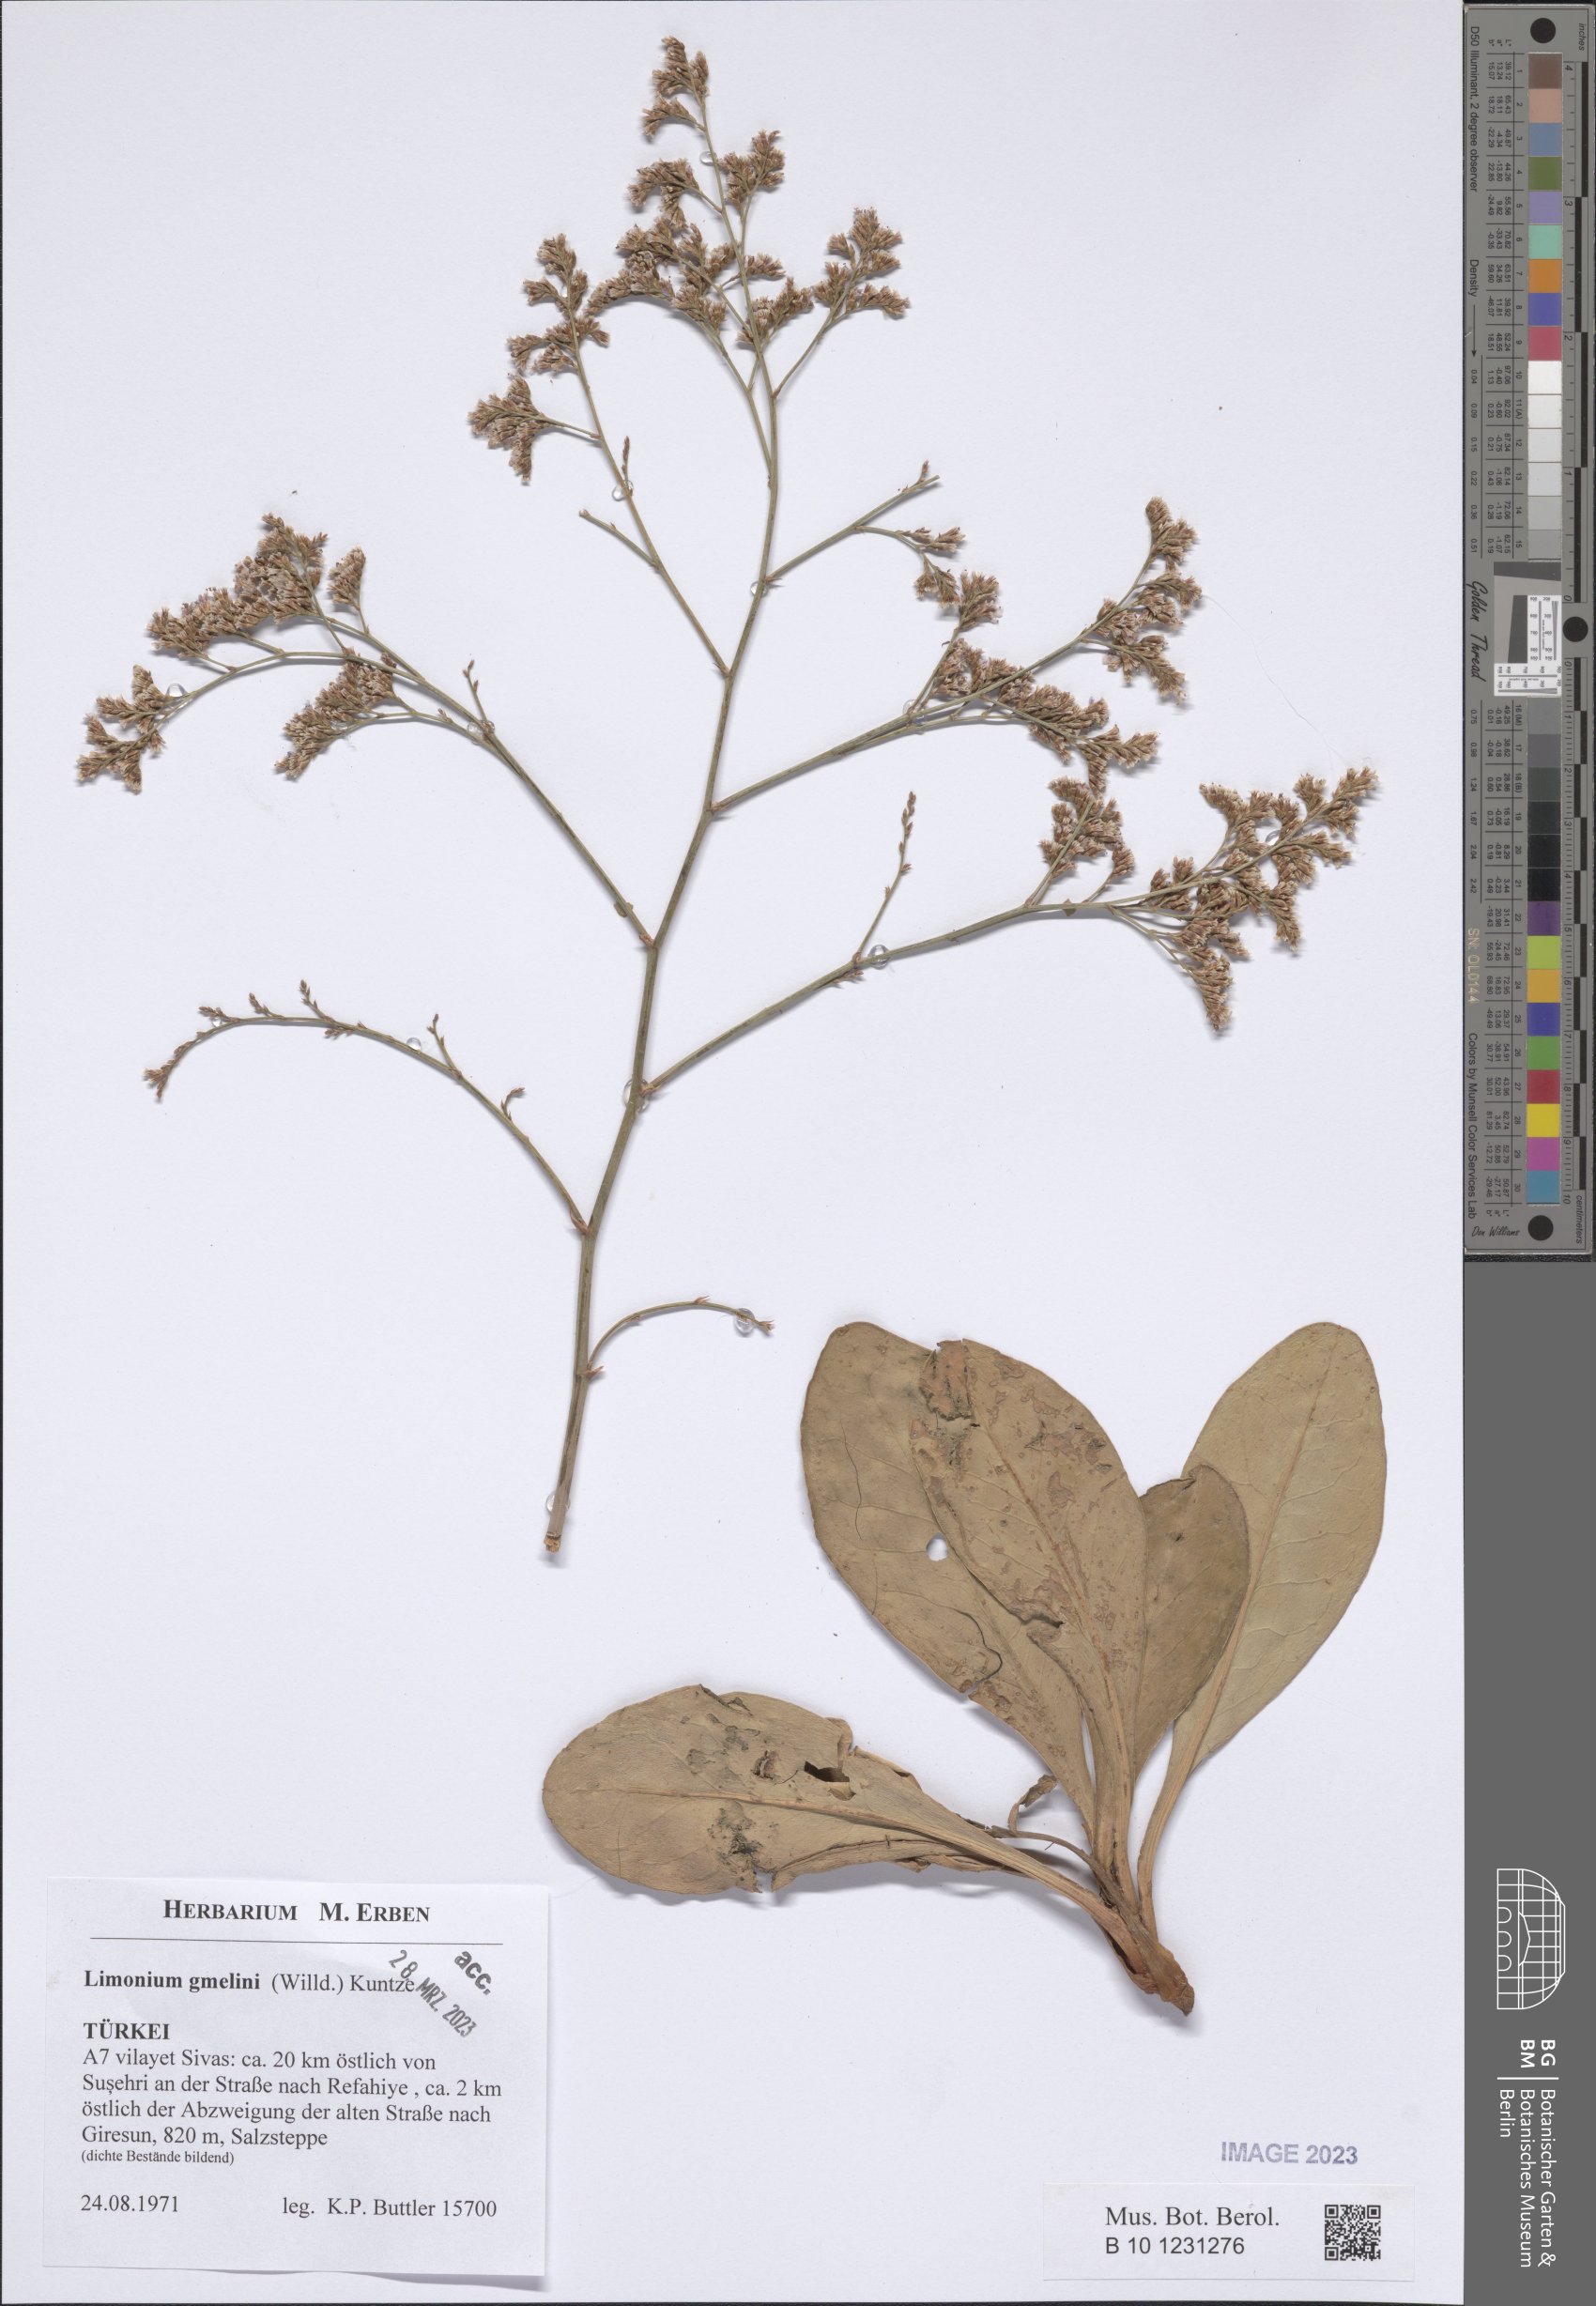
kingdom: Plantae
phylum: Tracheophyta
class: Magnoliopsida
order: Caryophyllales
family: Plumbaginaceae
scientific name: Plumbaginaceae
